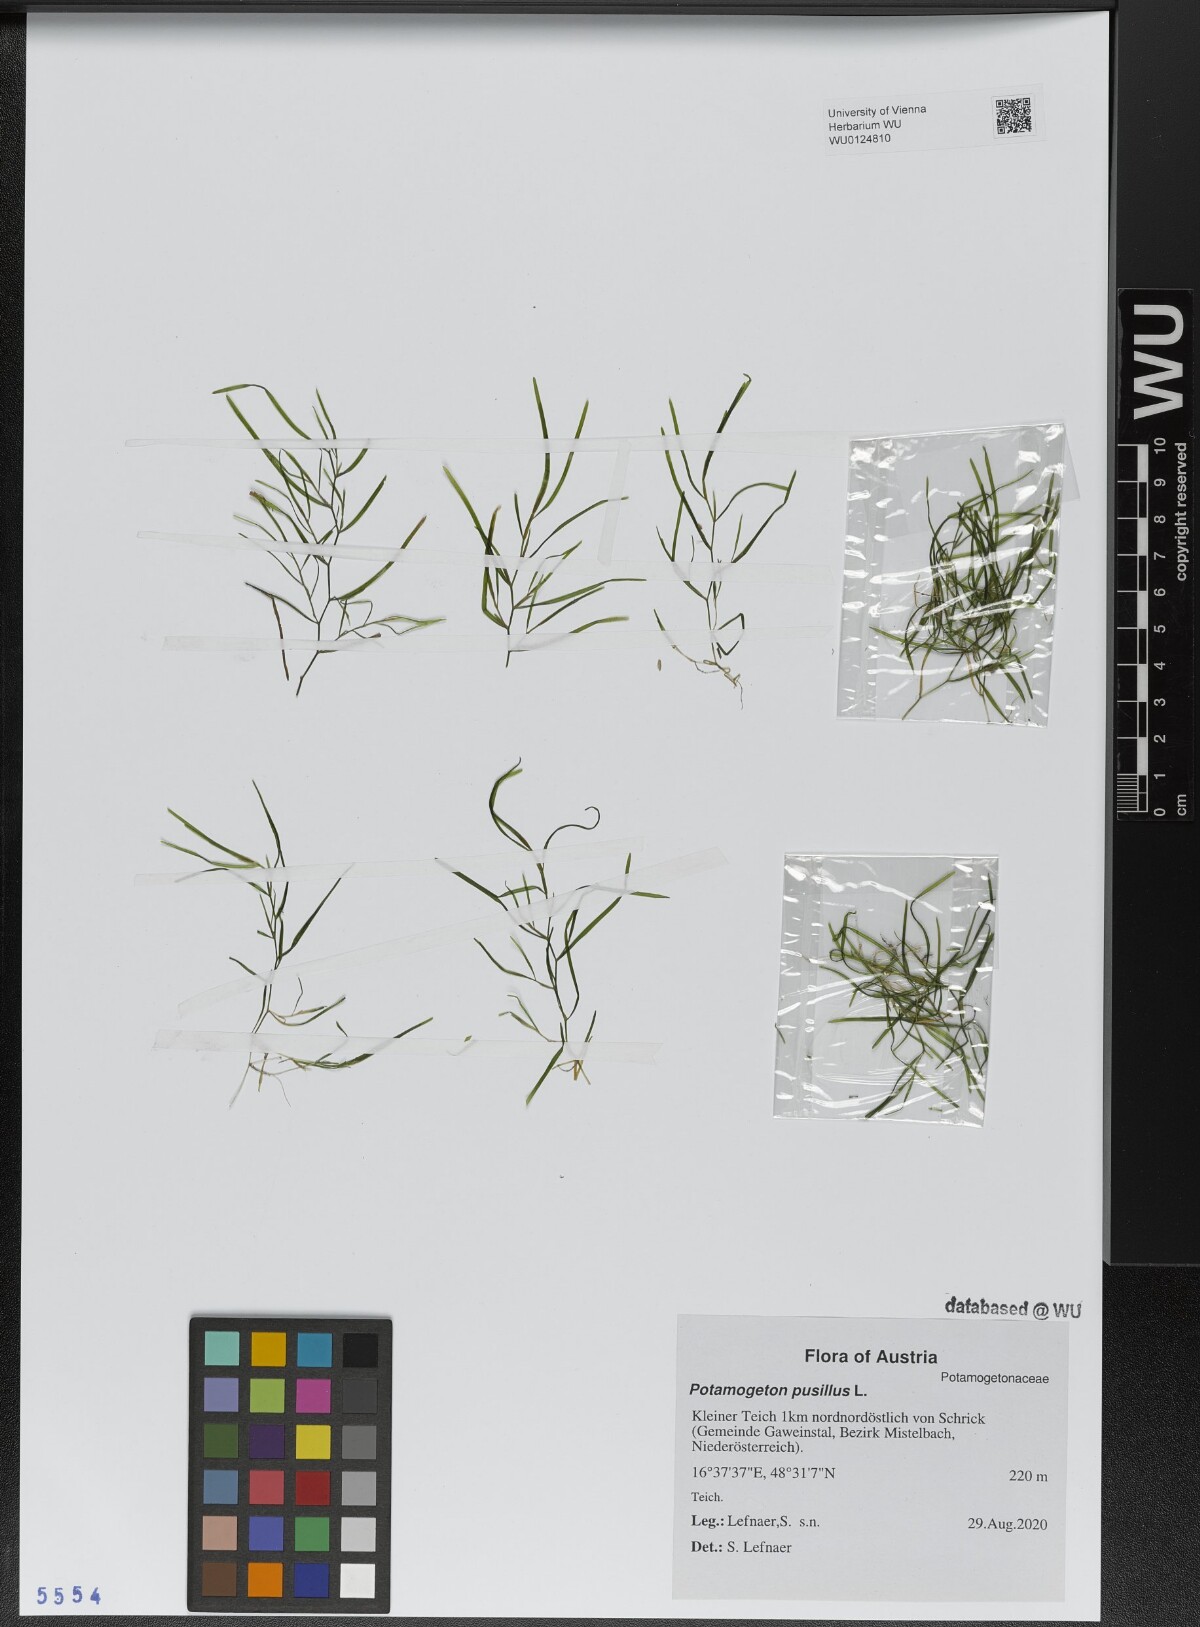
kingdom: Plantae
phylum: Tracheophyta
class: Liliopsida
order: Alismatales
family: Potamogetonaceae
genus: Potamogeton
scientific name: Potamogeton pusillus
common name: Lesser pondweed
